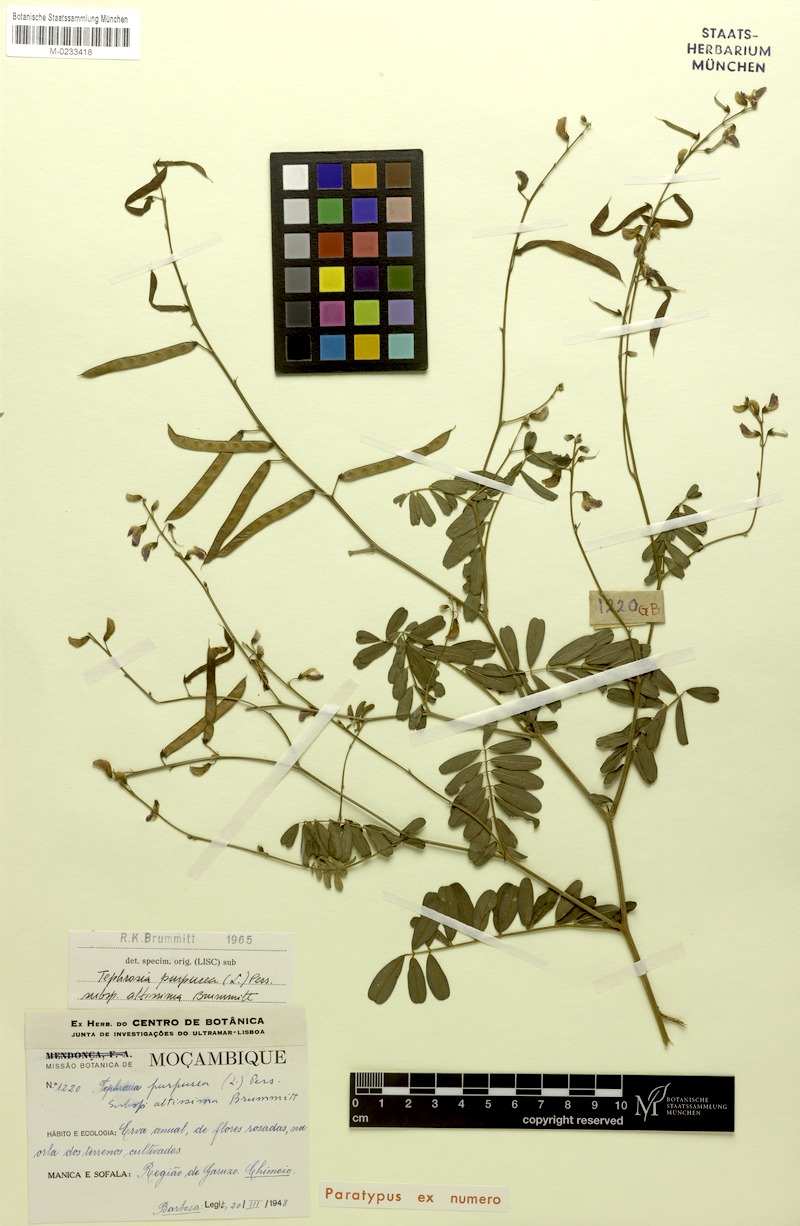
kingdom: Plantae
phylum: Tracheophyta
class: Magnoliopsida
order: Fabales
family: Fabaceae
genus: Tephrosia
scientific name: Tephrosia purpurea
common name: Fishpoison
